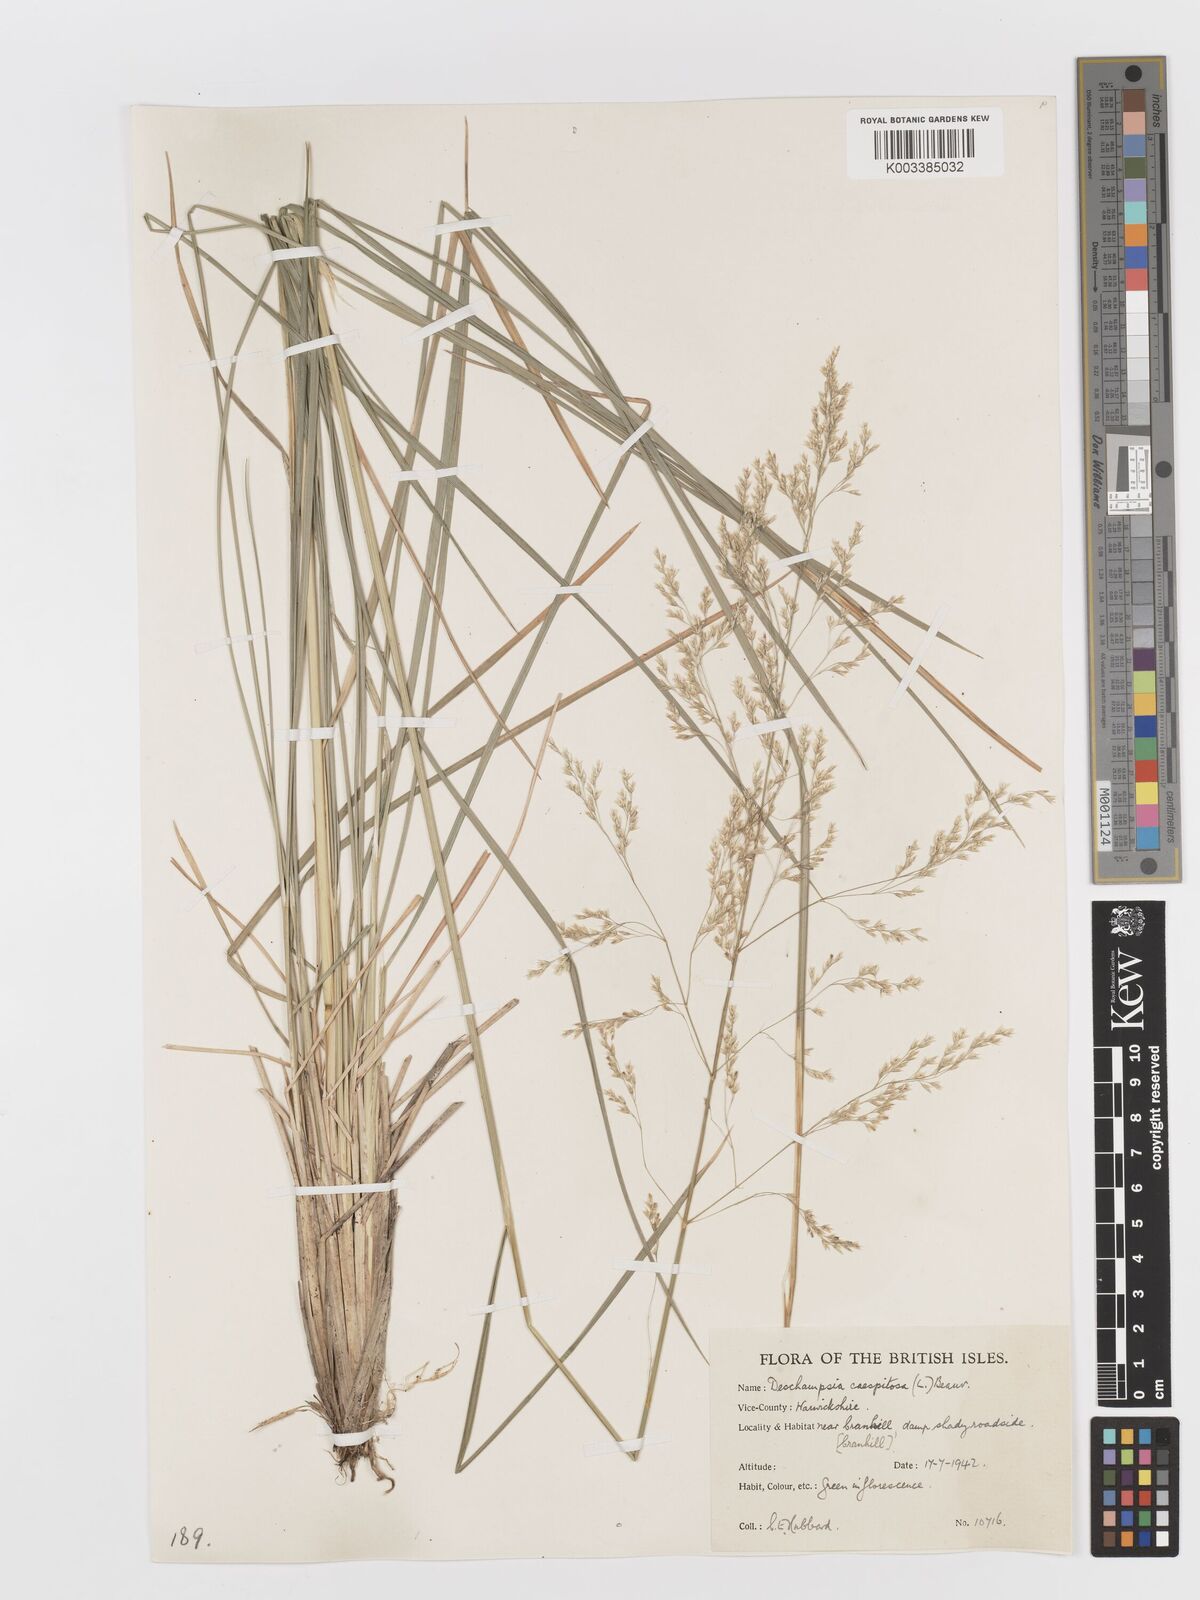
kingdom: Plantae
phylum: Tracheophyta
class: Liliopsida
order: Poales
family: Poaceae
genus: Deschampsia
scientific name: Deschampsia cespitosa
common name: Tufted hair-grass
